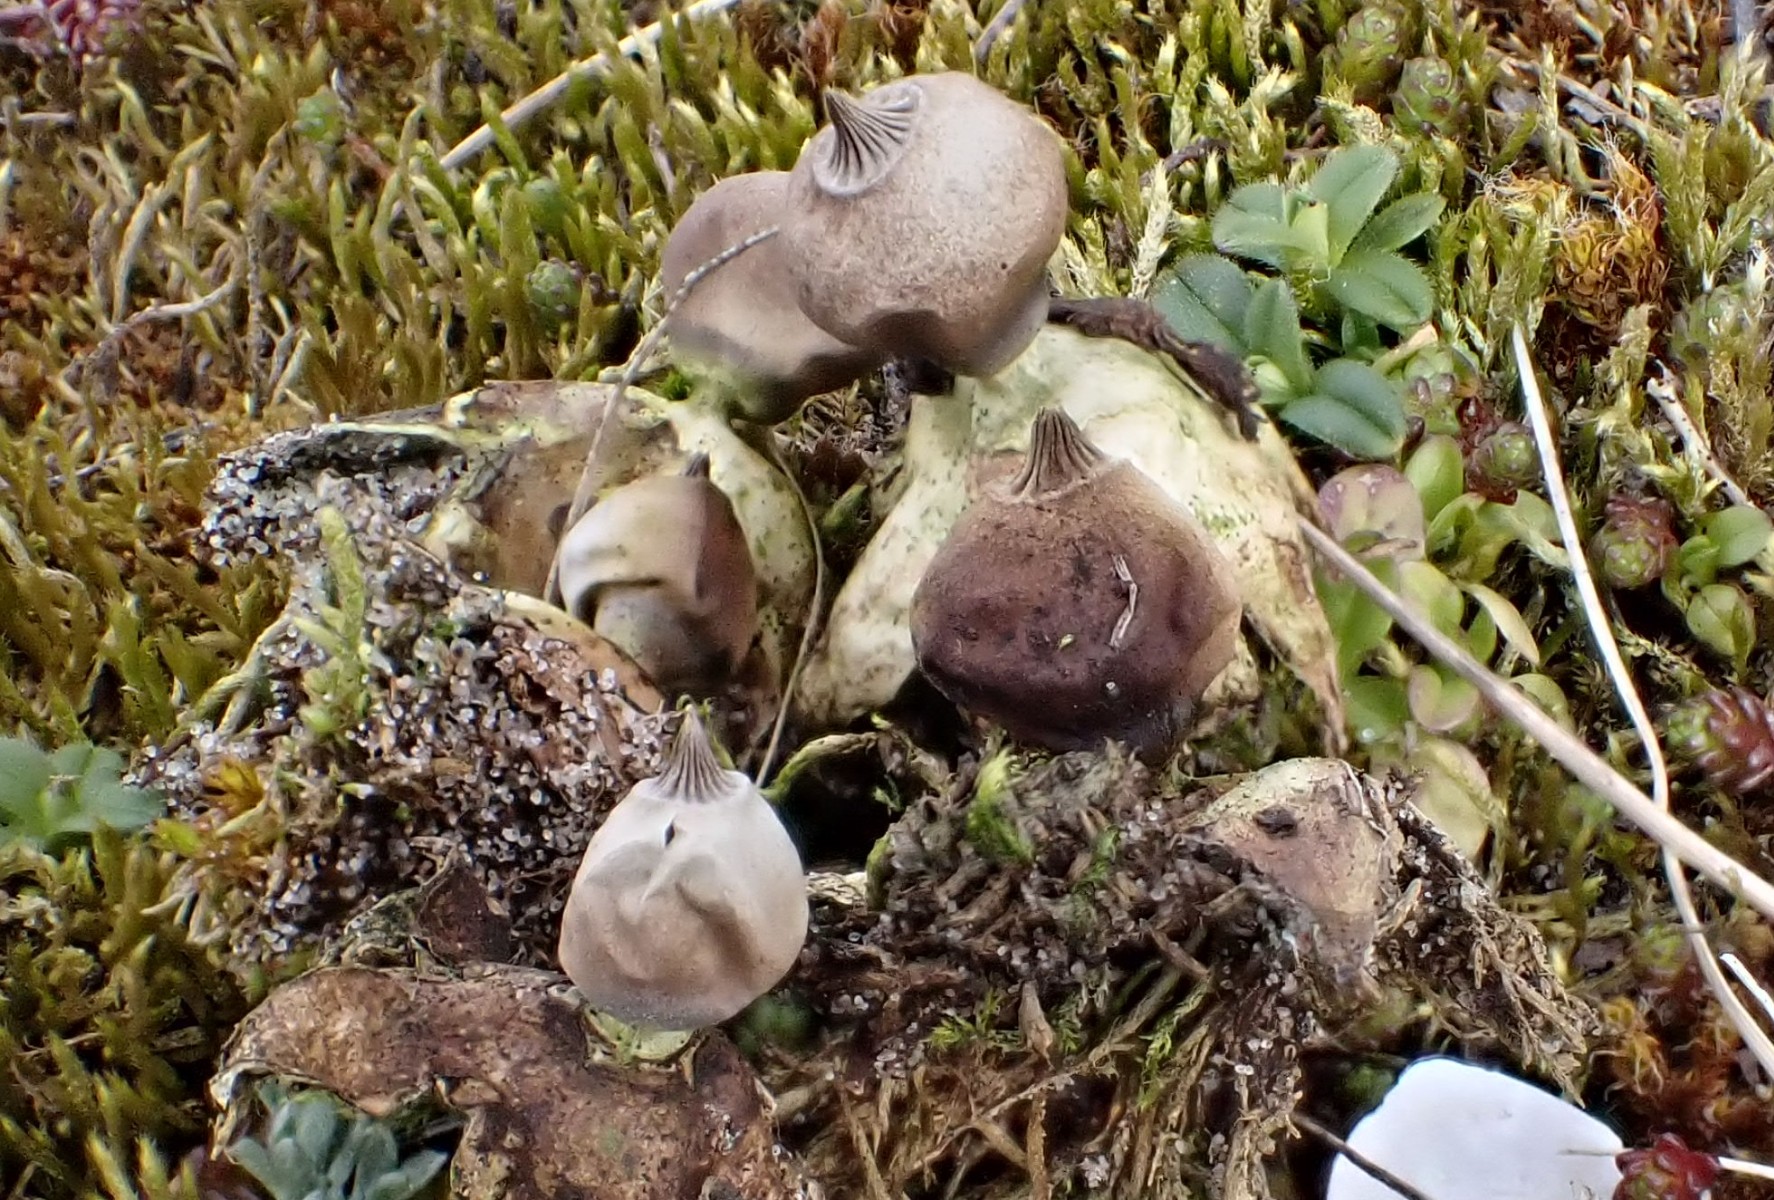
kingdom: Fungi
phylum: Basidiomycota
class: Agaricomycetes
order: Geastrales
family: Geastraceae
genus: Geastrum
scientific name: Geastrum striatum
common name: dværg-stjernebold
